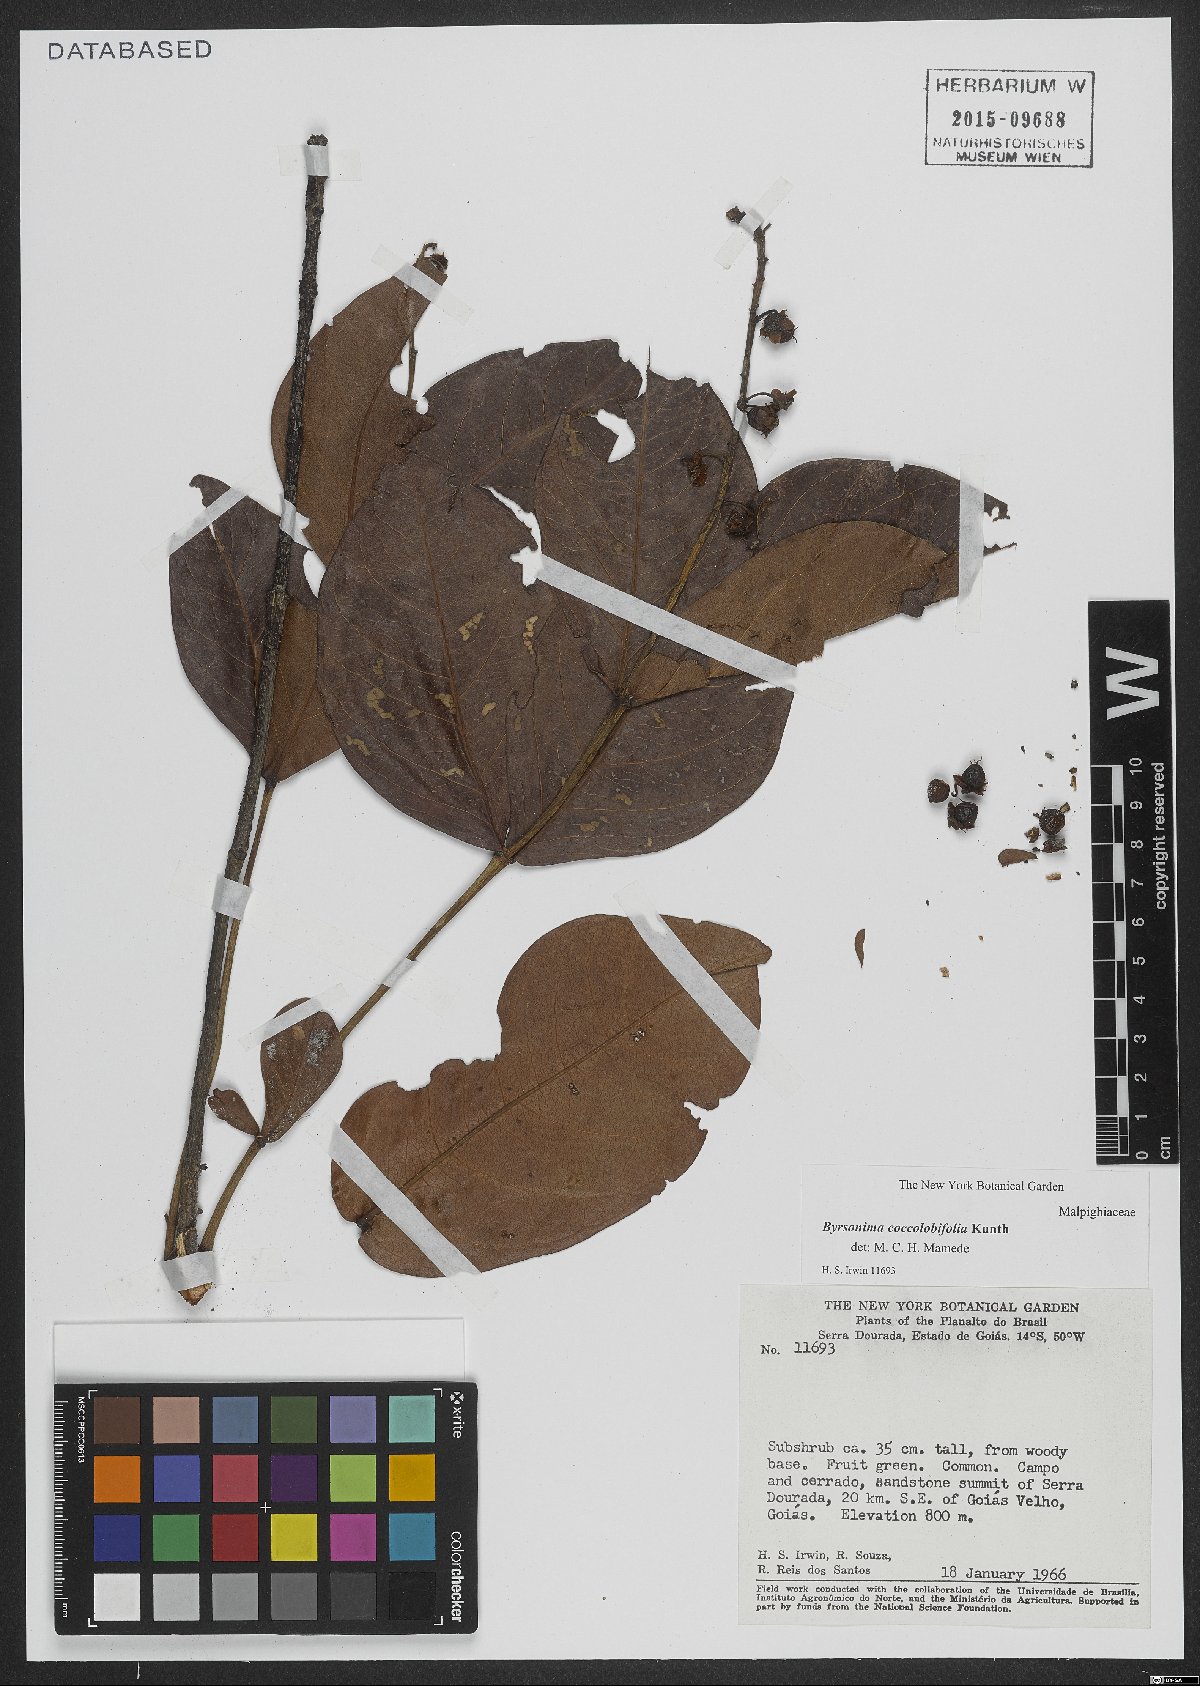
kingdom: Plantae
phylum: Tracheophyta
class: Magnoliopsida
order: Malpighiales
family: Malpighiaceae
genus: Byrsonima
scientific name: Byrsonima coccolobifolia
